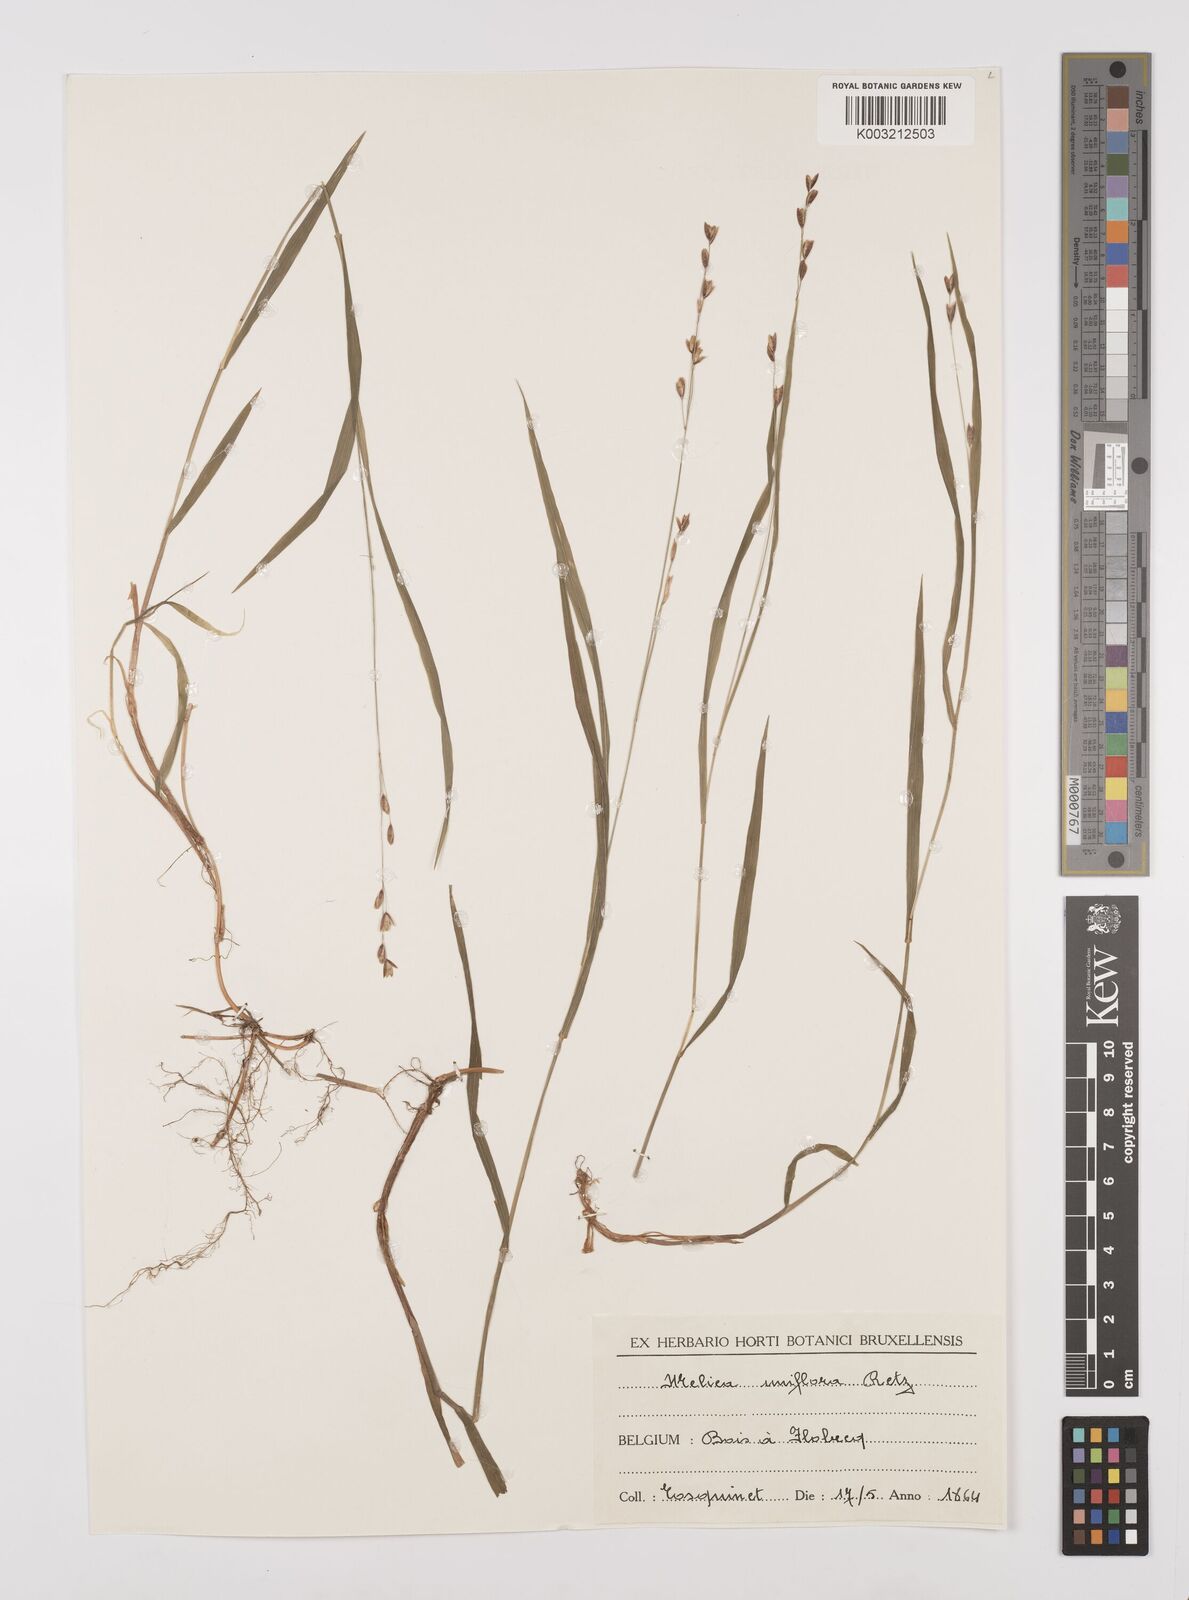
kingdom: Plantae
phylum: Tracheophyta
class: Liliopsida
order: Poales
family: Poaceae
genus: Melica
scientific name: Melica uniflora
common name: Wood melick
